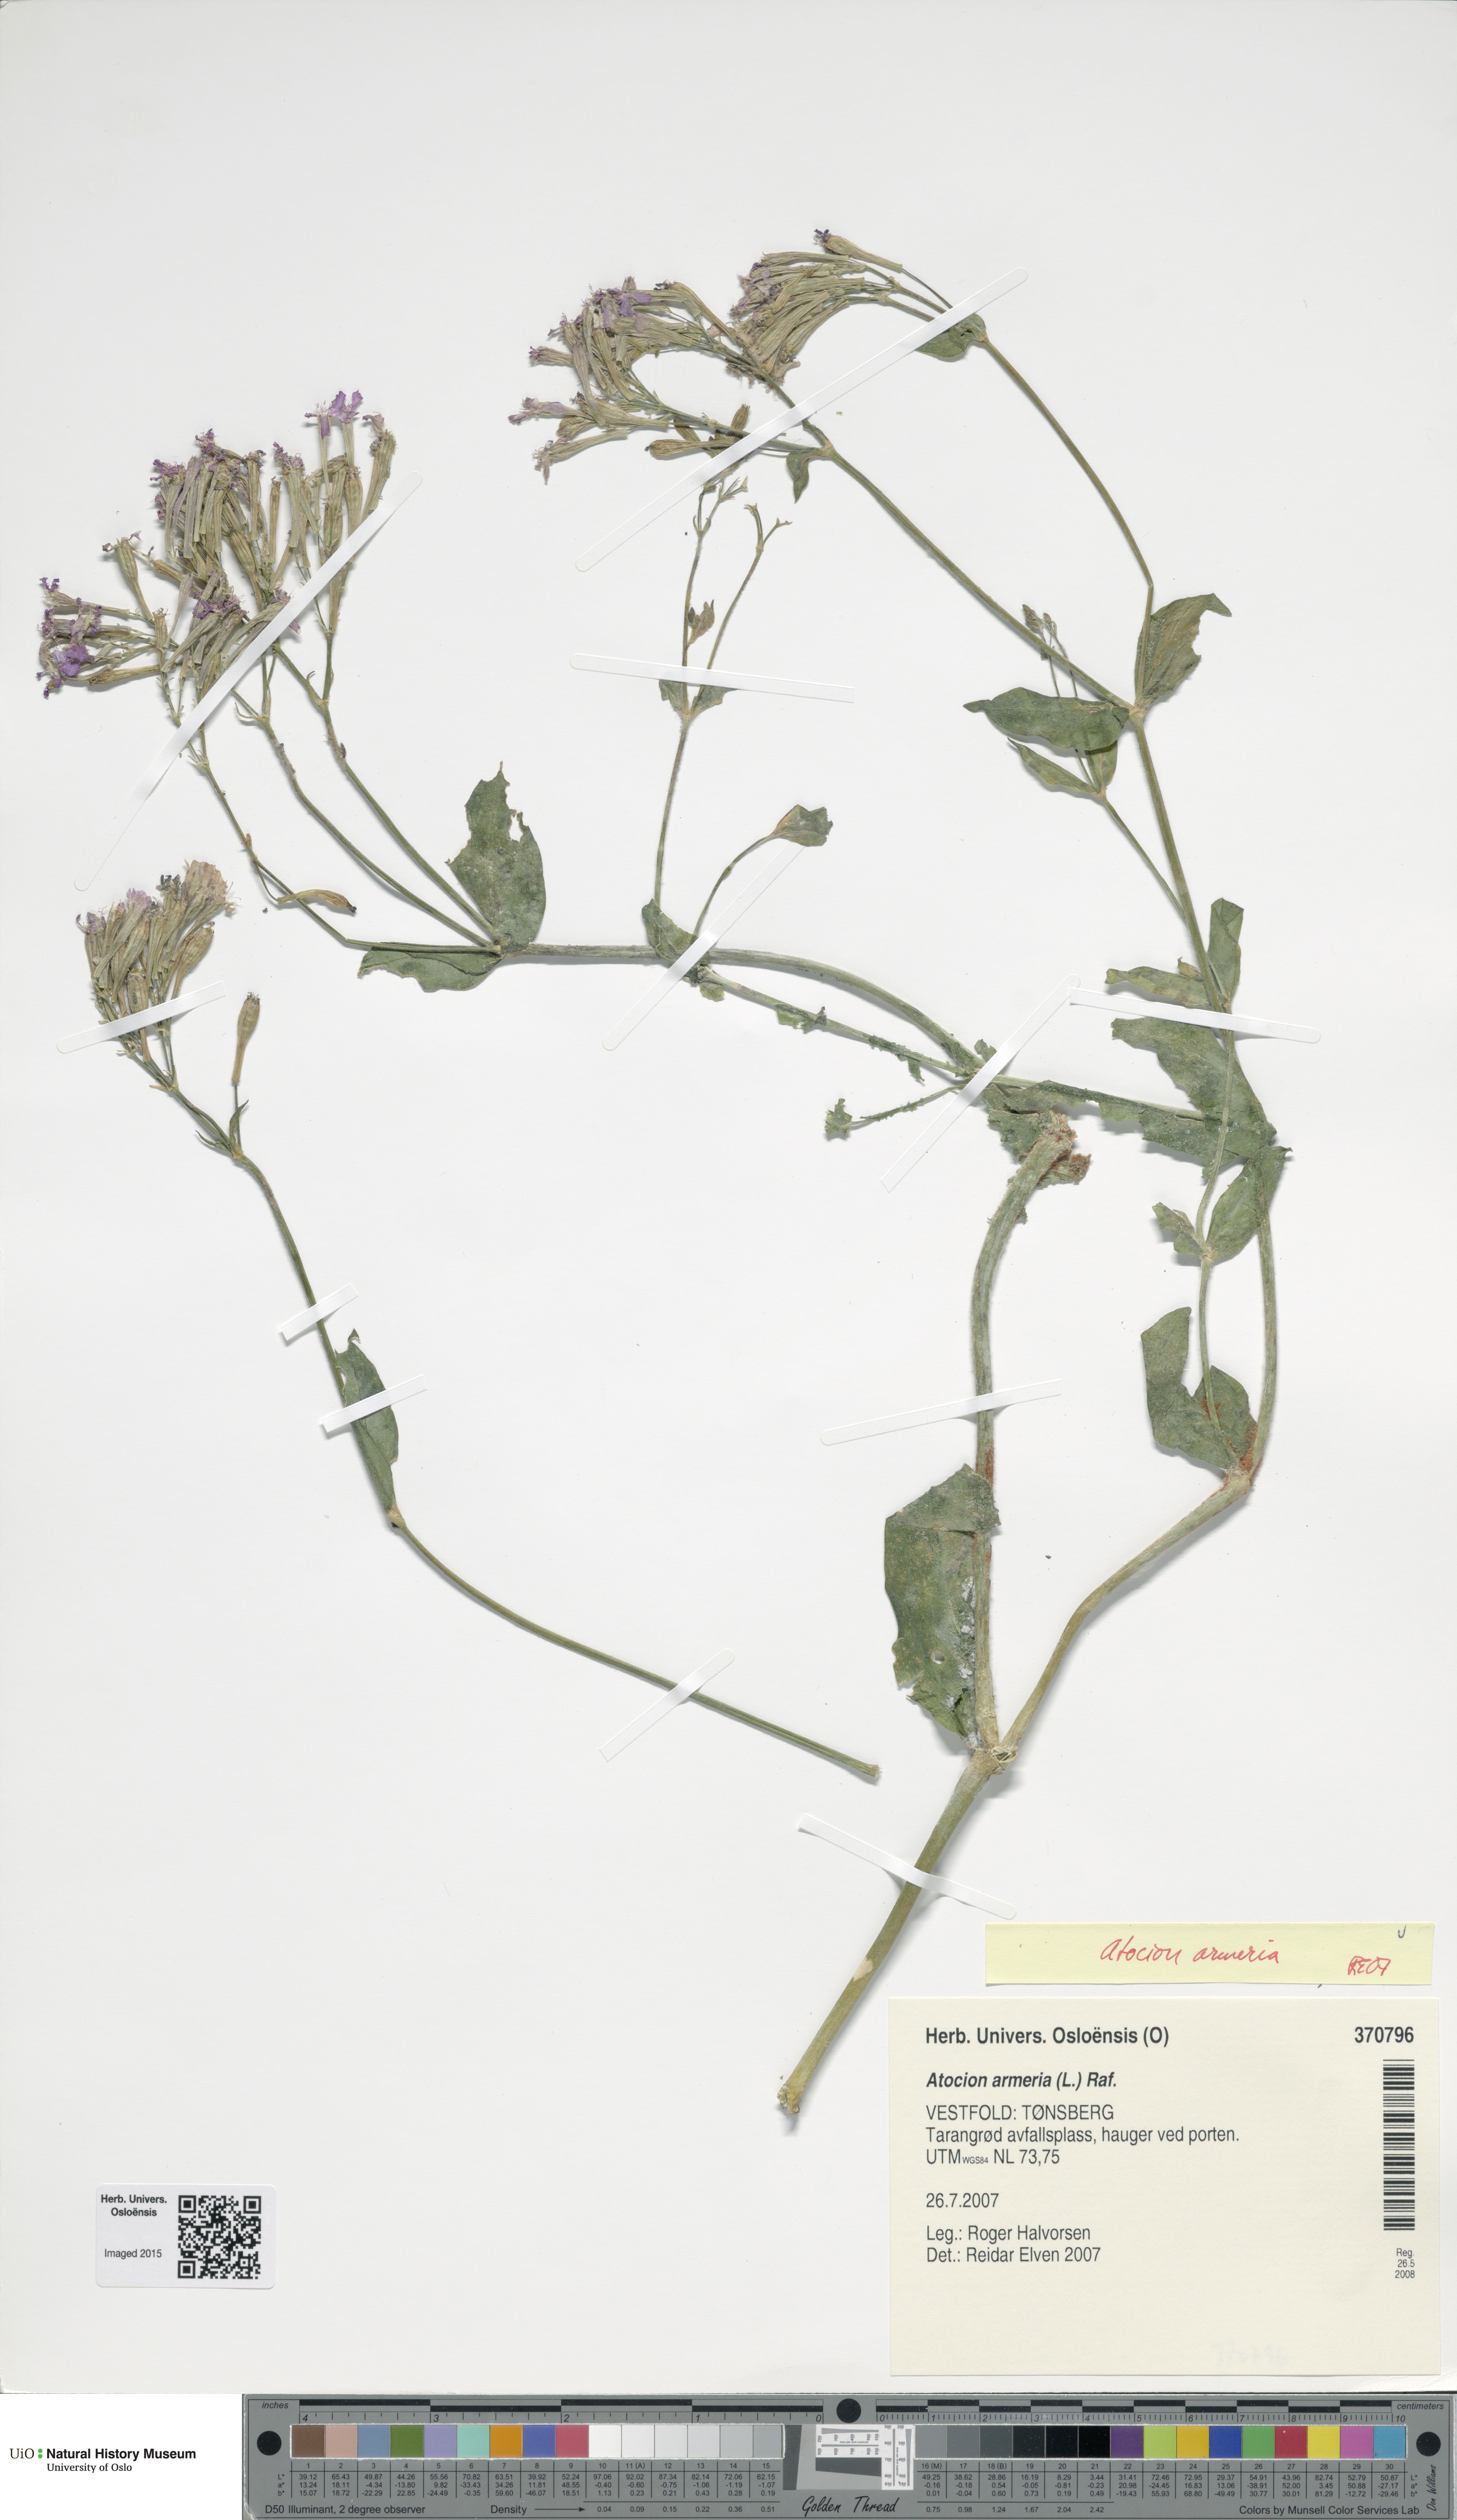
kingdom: Plantae
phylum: Tracheophyta
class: Magnoliopsida
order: Caryophyllales
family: Caryophyllaceae
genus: Atocion
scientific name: Atocion armeria
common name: Sweet william catchfly
